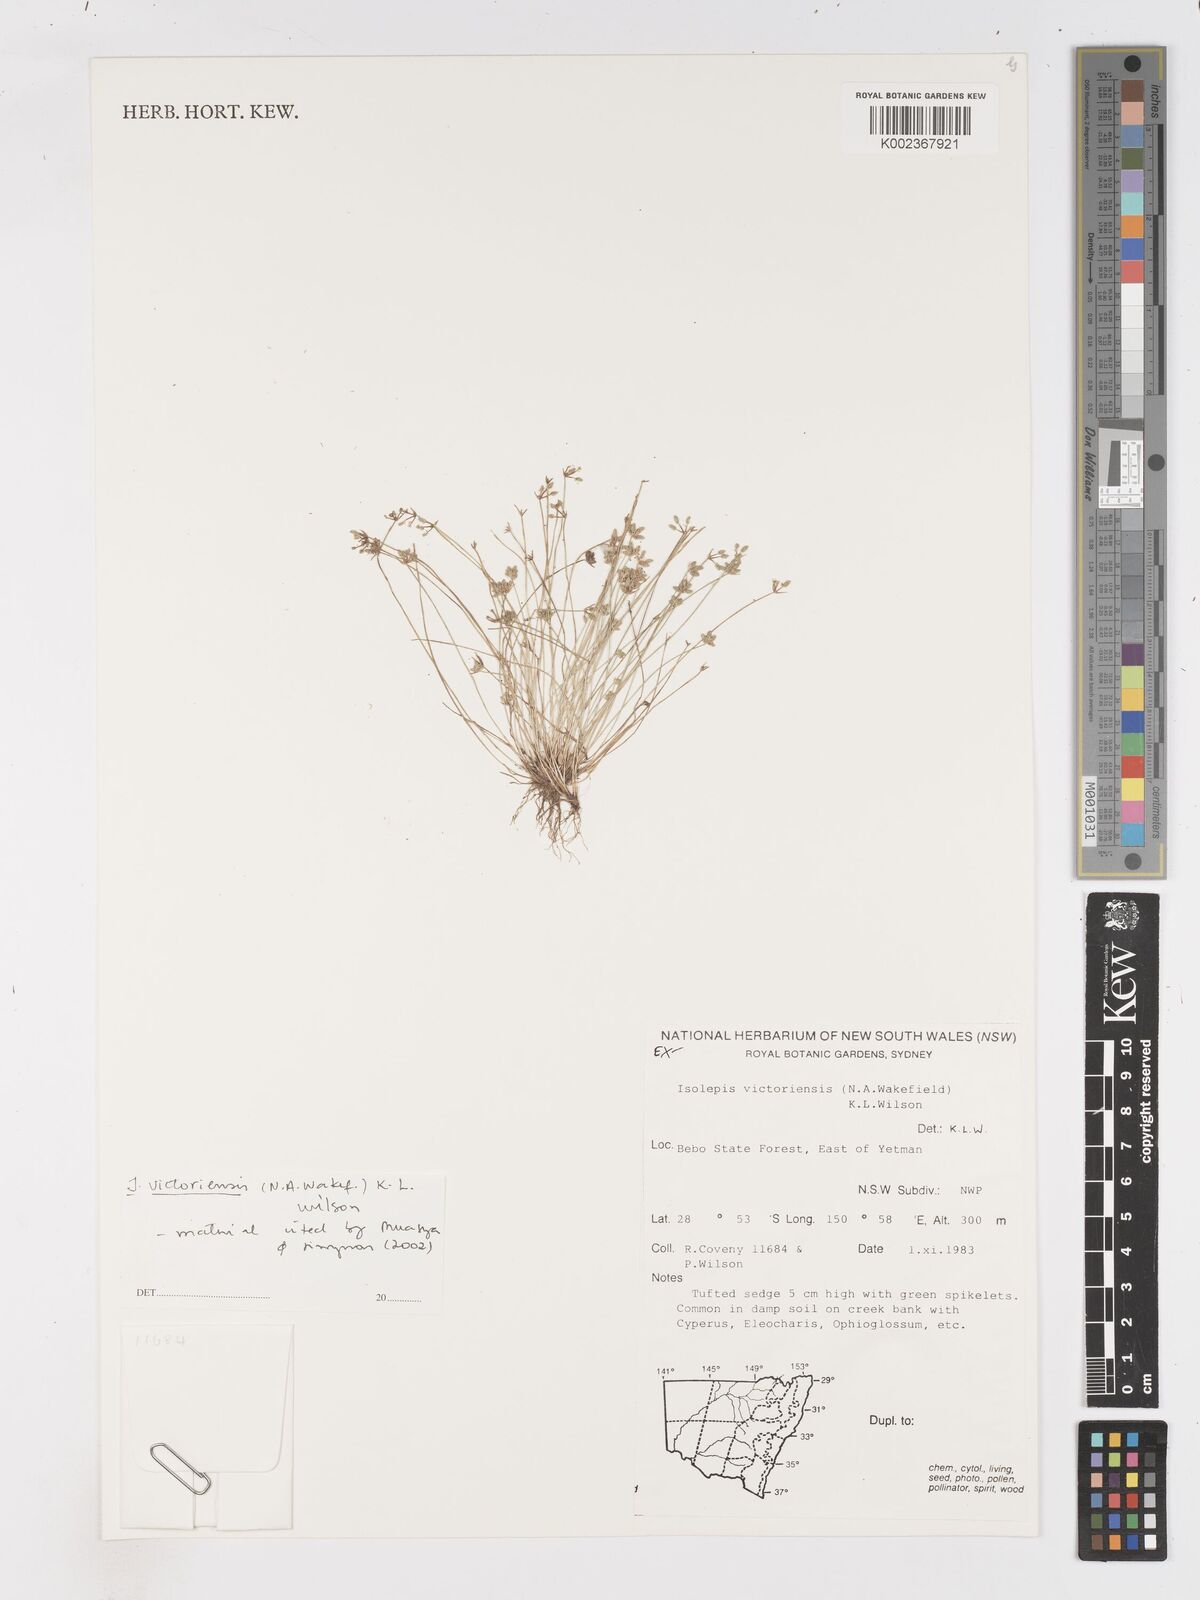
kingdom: Plantae
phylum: Tracheophyta
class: Liliopsida
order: Poales
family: Cyperaceae
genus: Isolepis
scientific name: Isolepis victoriensis
